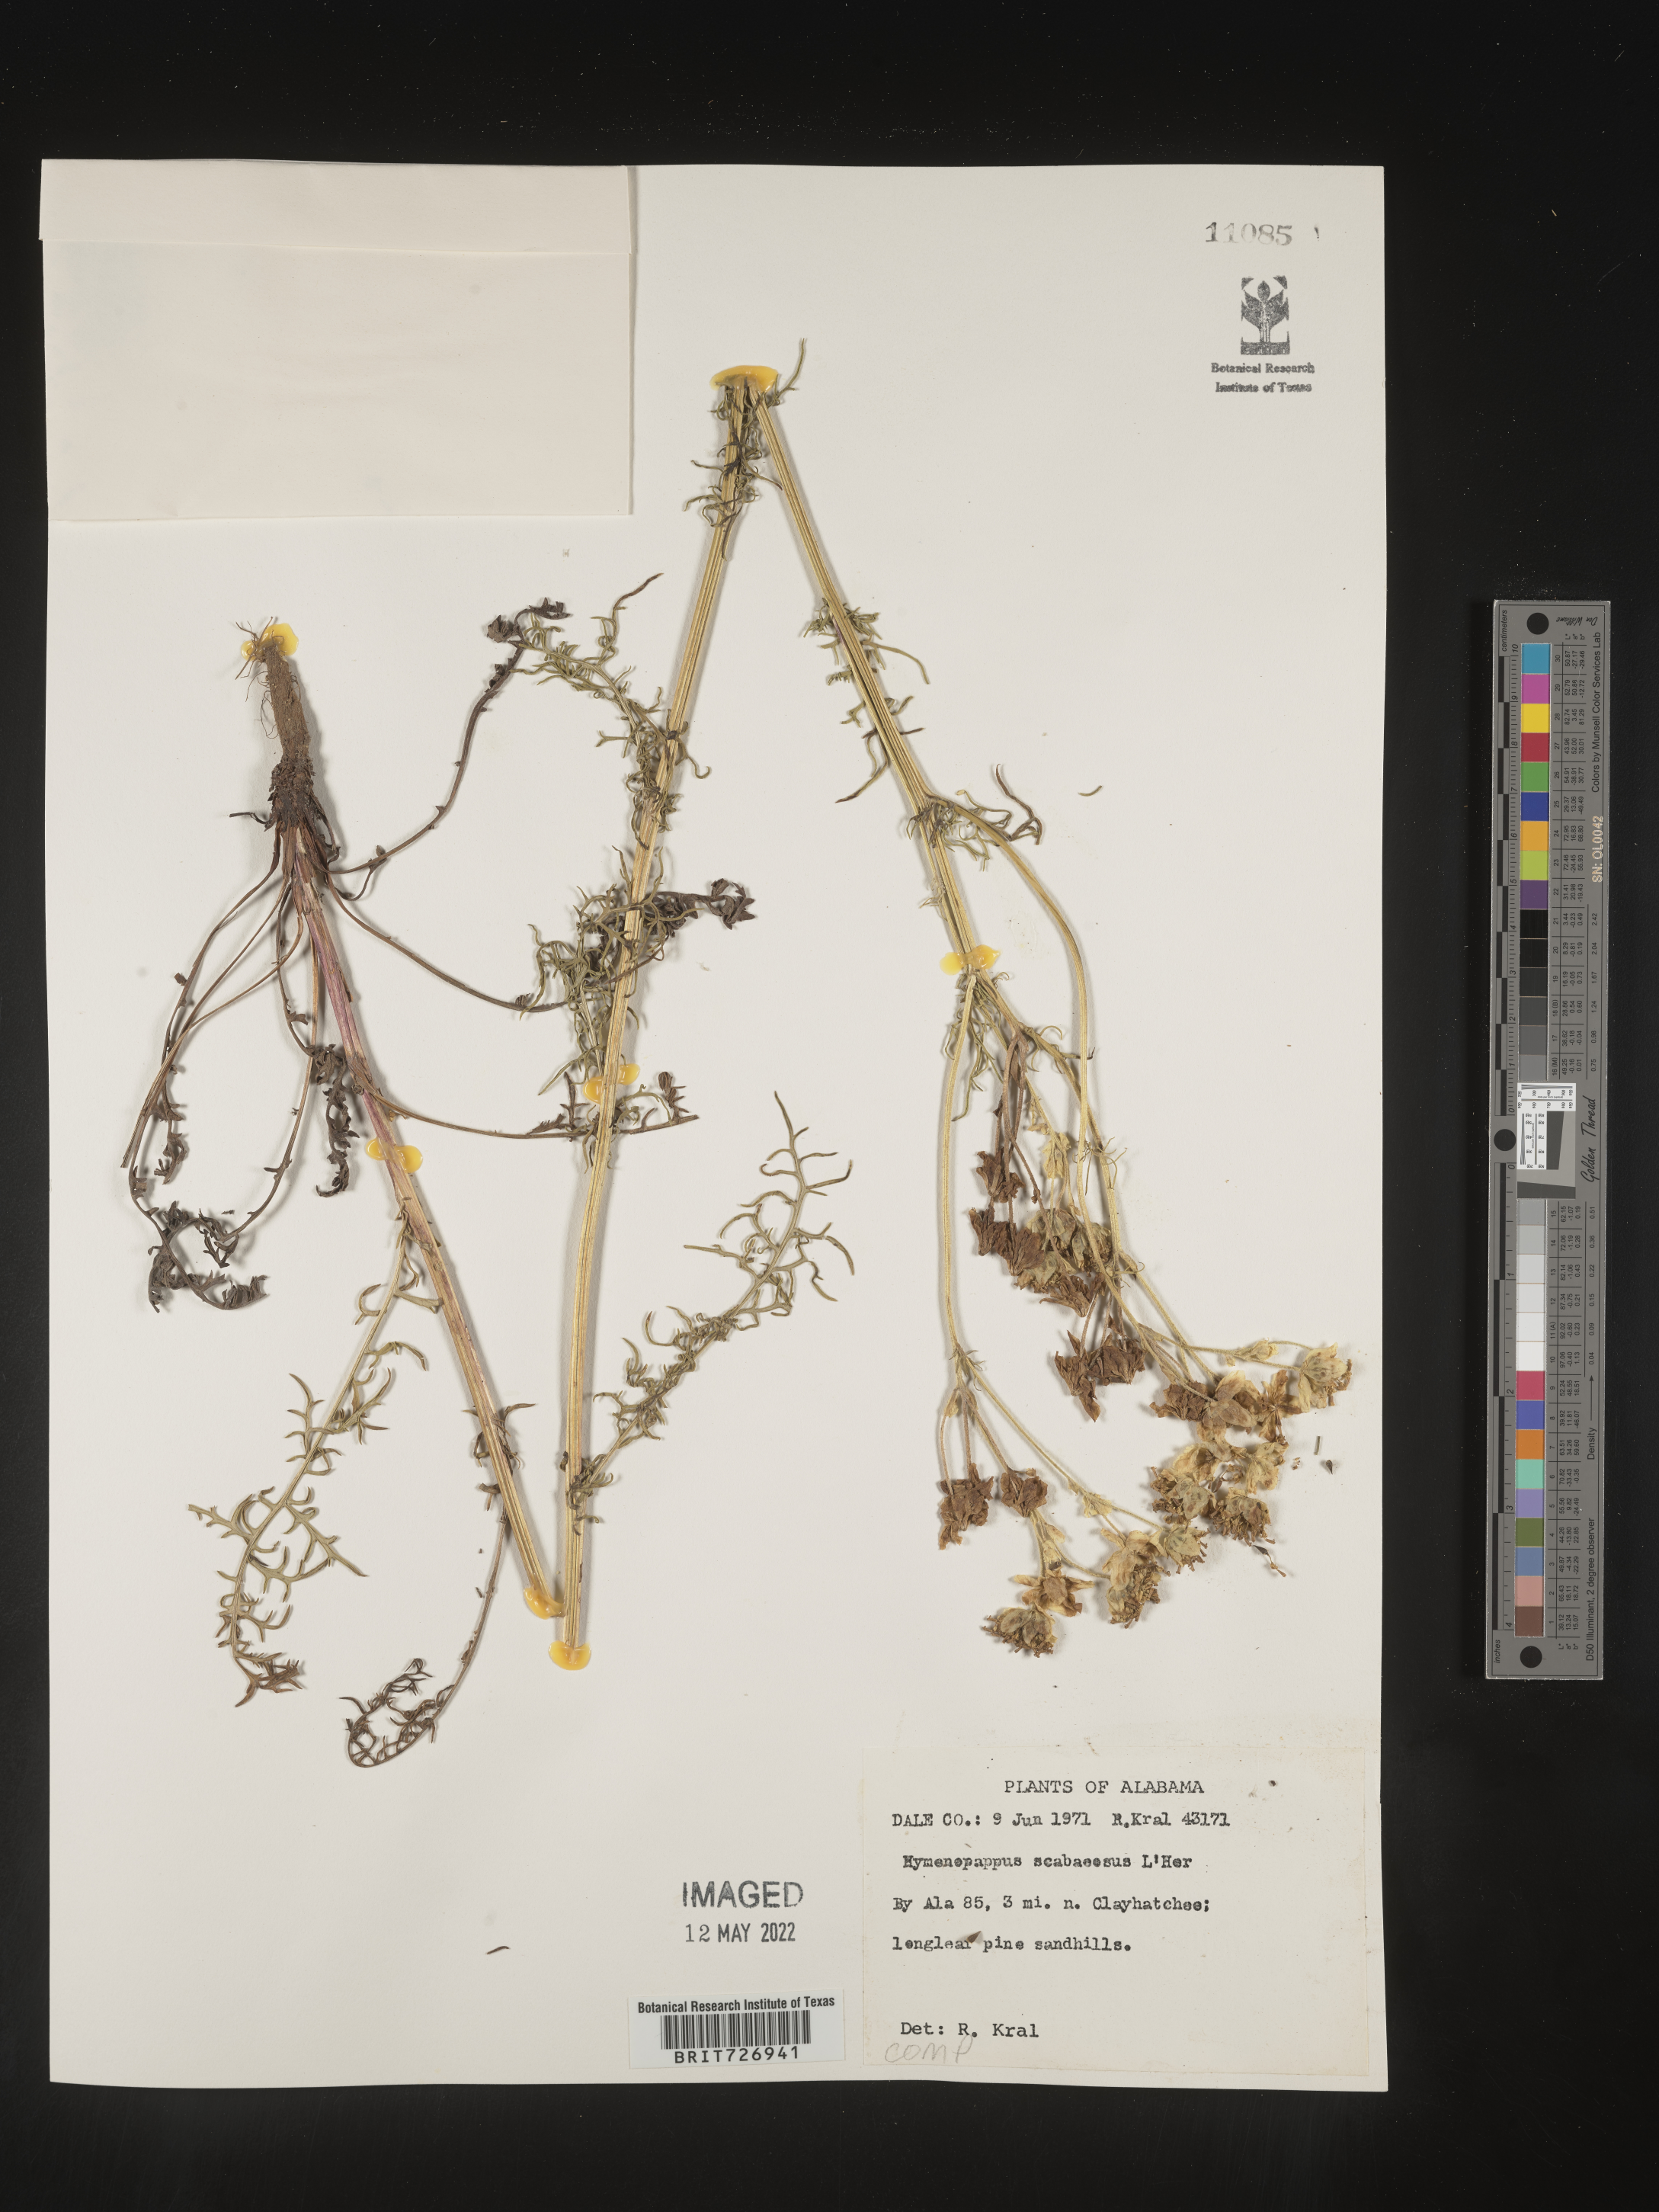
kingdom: Plantae
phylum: Tracheophyta
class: Magnoliopsida
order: Asterales
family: Asteraceae
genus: Hymenopappus
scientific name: Hymenopappus scabiosaeus
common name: Carolina woollywhite
